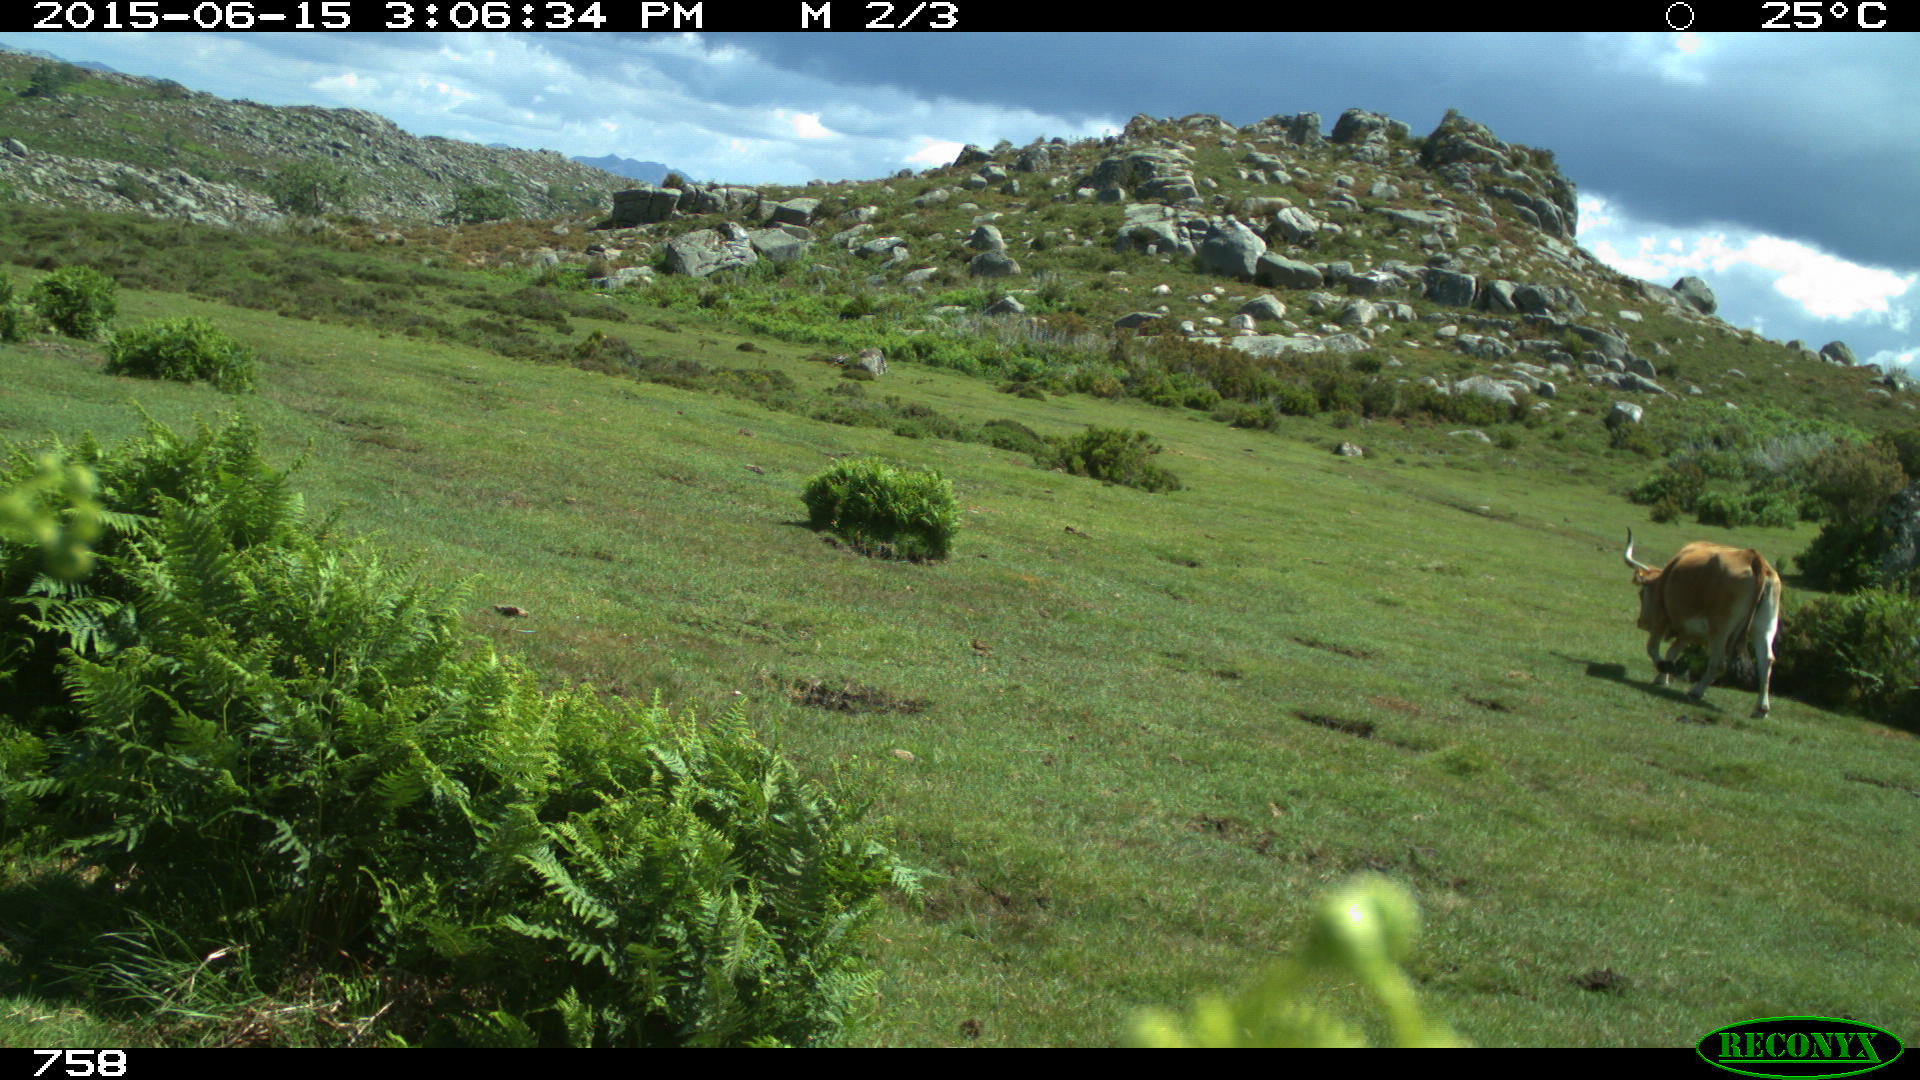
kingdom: Animalia
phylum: Chordata
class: Mammalia
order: Artiodactyla
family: Bovidae
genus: Bos
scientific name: Bos taurus
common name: Domesticated cattle
